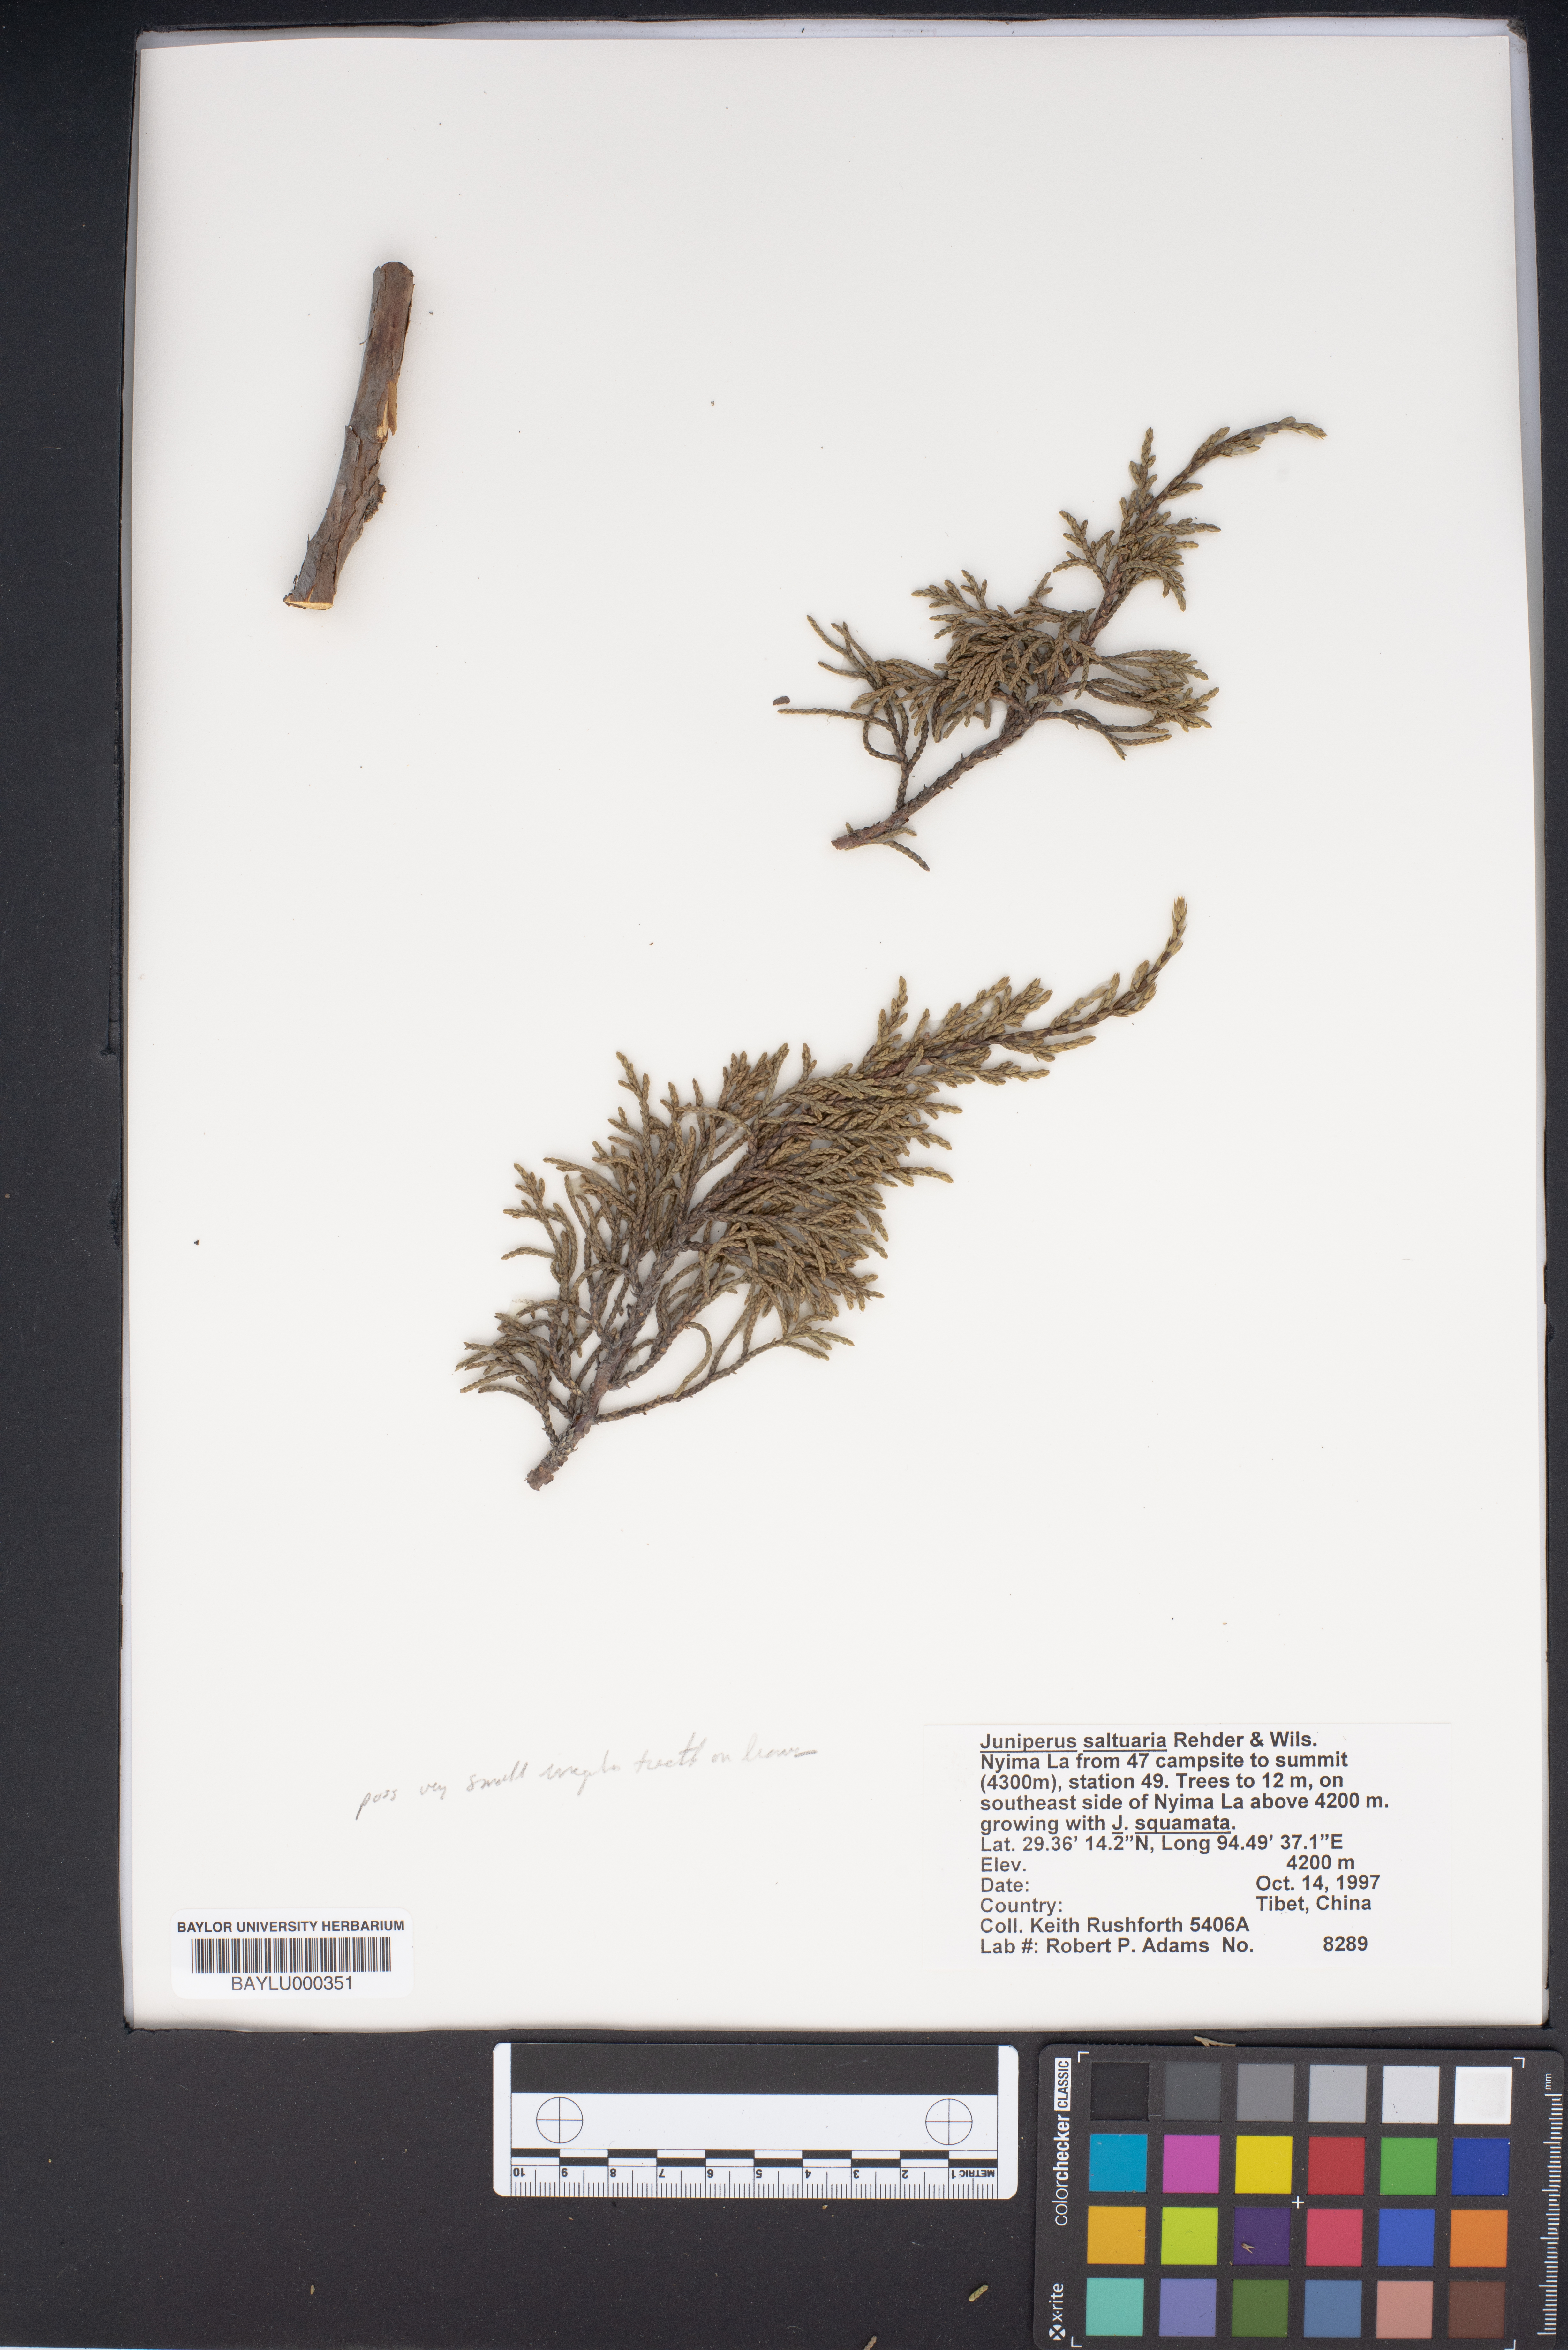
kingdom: Plantae
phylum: Tracheophyta
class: Pinopsida
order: Pinales
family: Cupressaceae
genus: Juniperus
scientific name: Juniperus saltuaria
